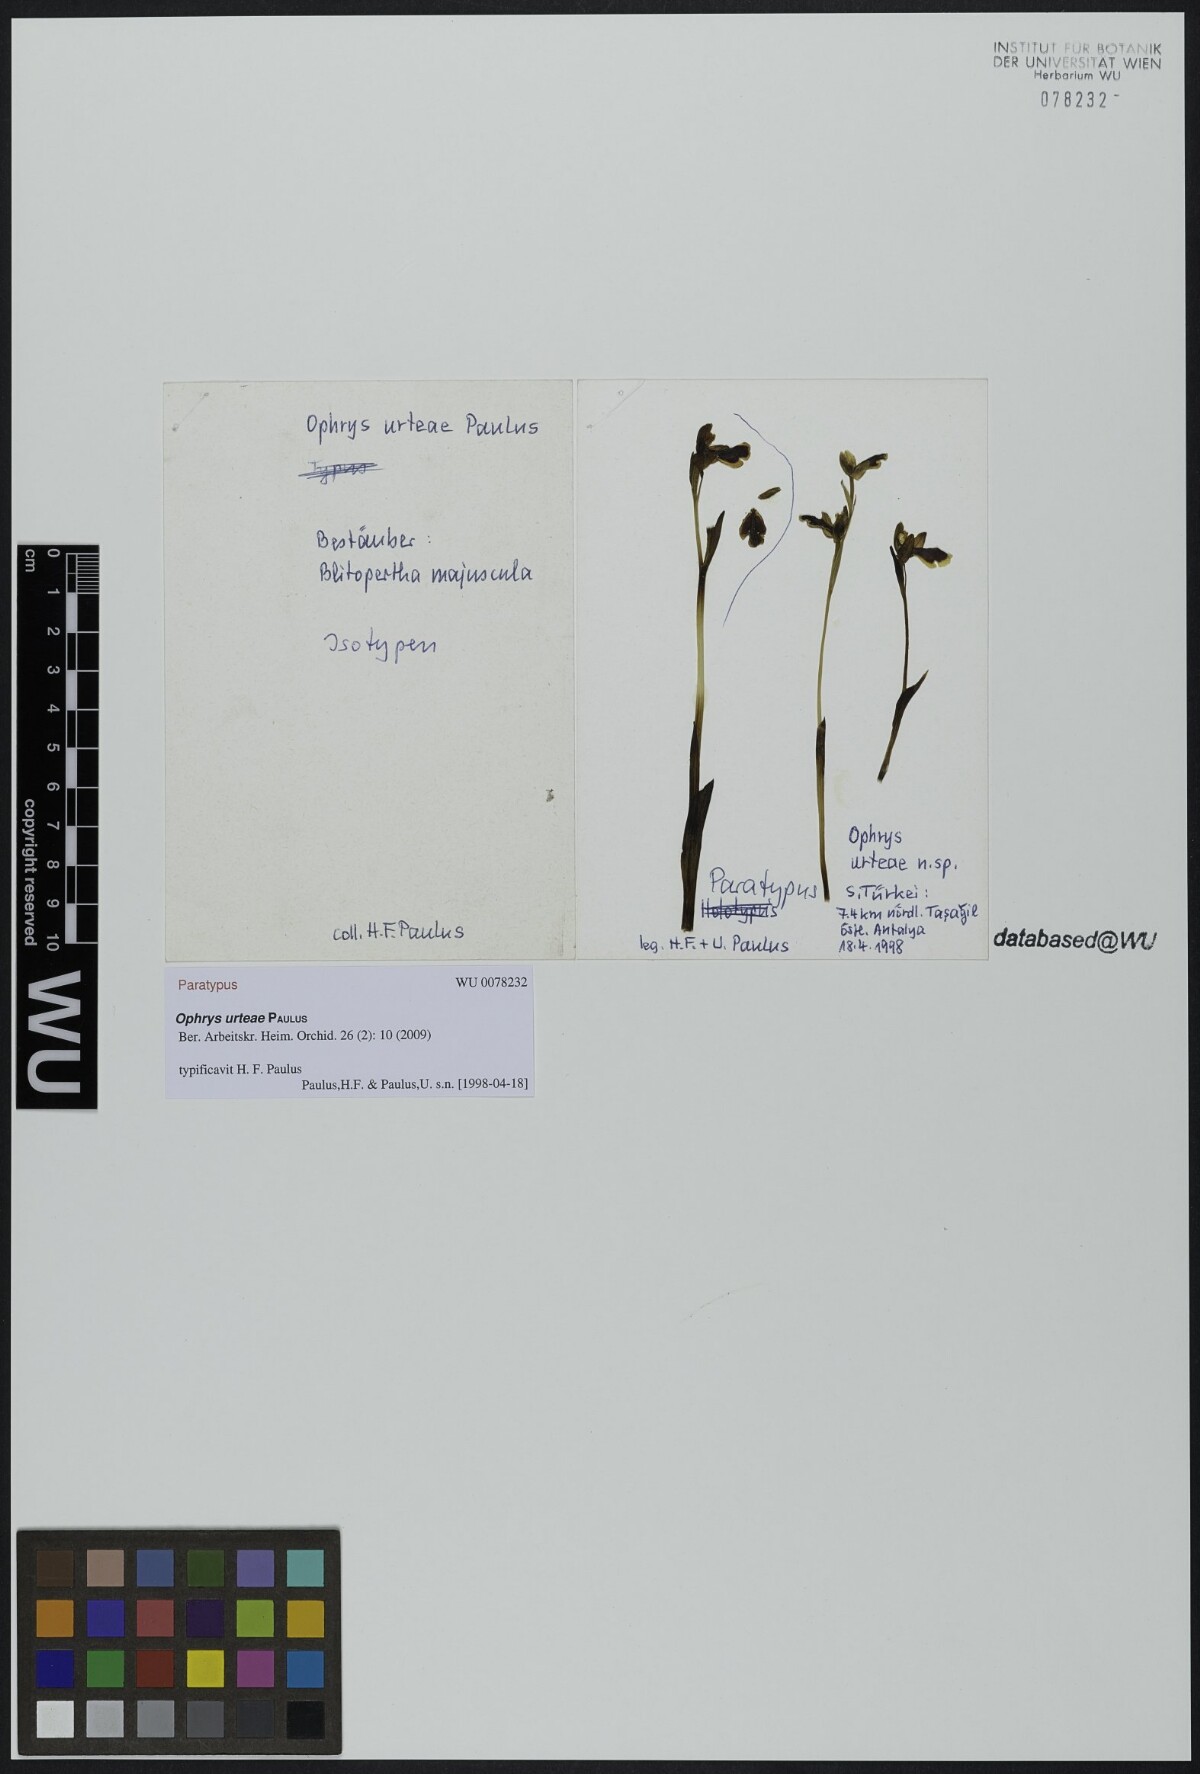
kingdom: Plantae
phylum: Tracheophyta
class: Liliopsida
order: Asparagales
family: Orchidaceae
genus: Ophrys
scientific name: Ophrys fusca
